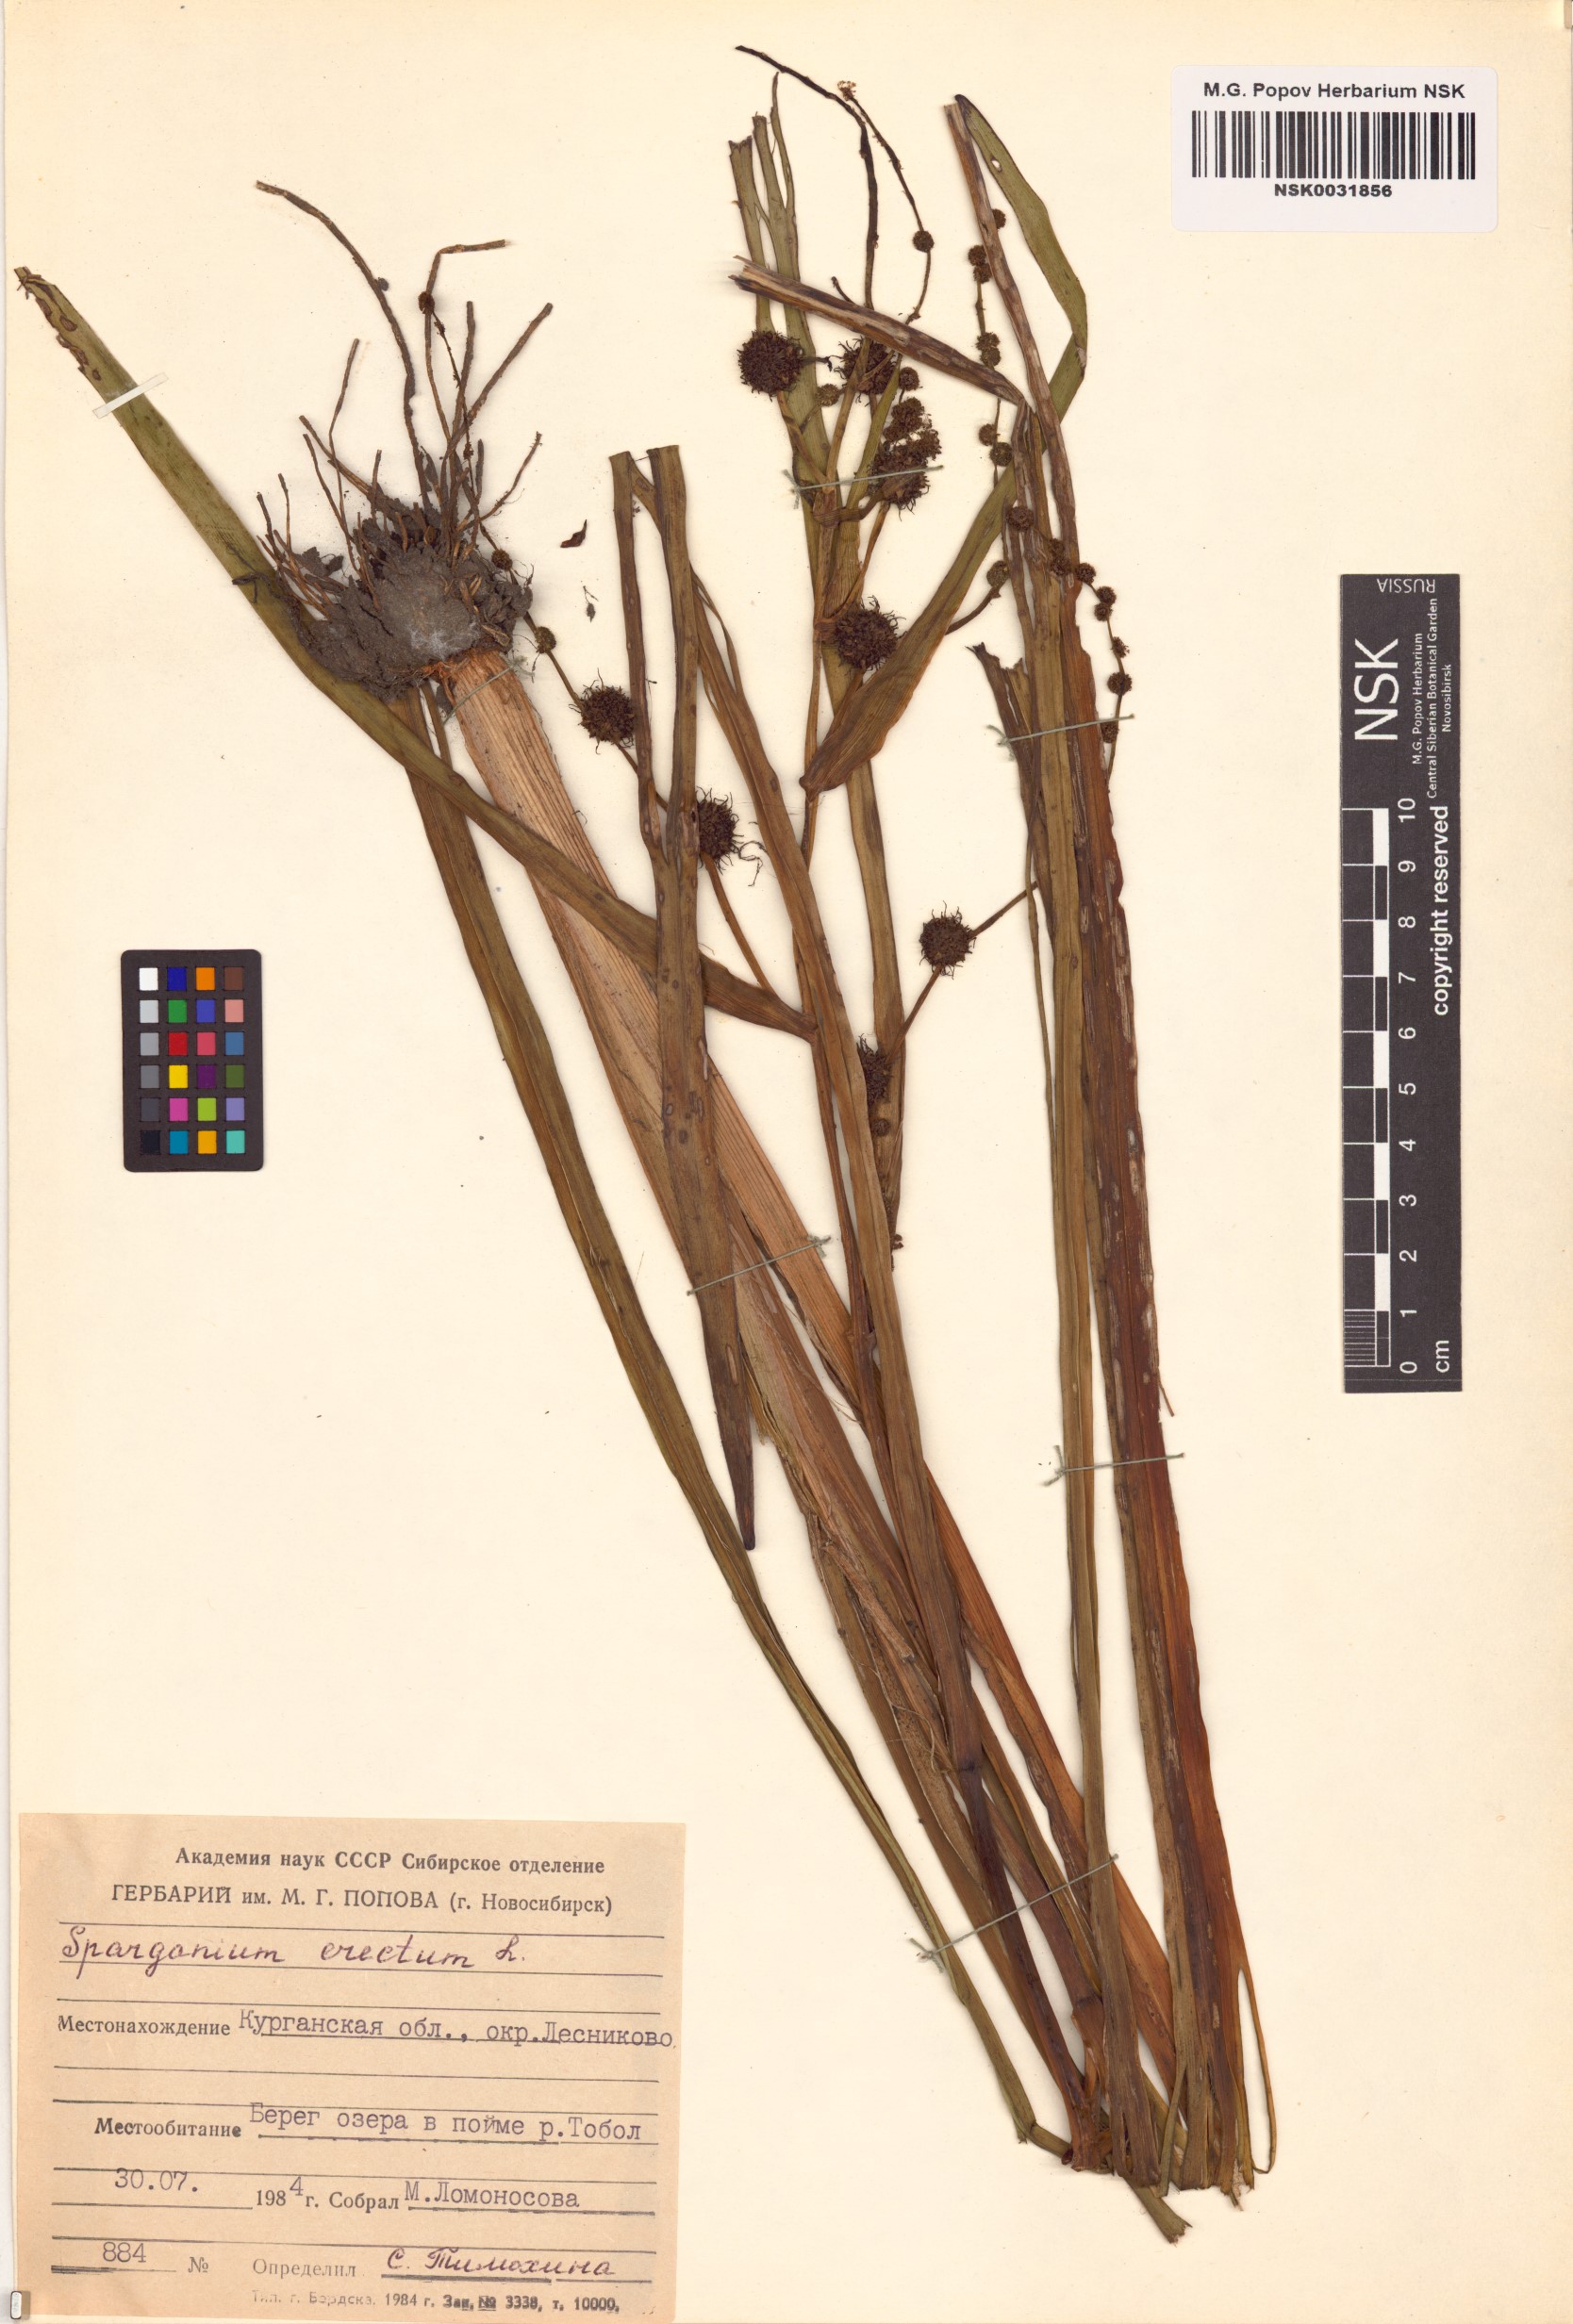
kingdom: Plantae
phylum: Tracheophyta
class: Liliopsida
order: Poales
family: Typhaceae
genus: Sparganium
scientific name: Sparganium erectum
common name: Branched bur-reed
